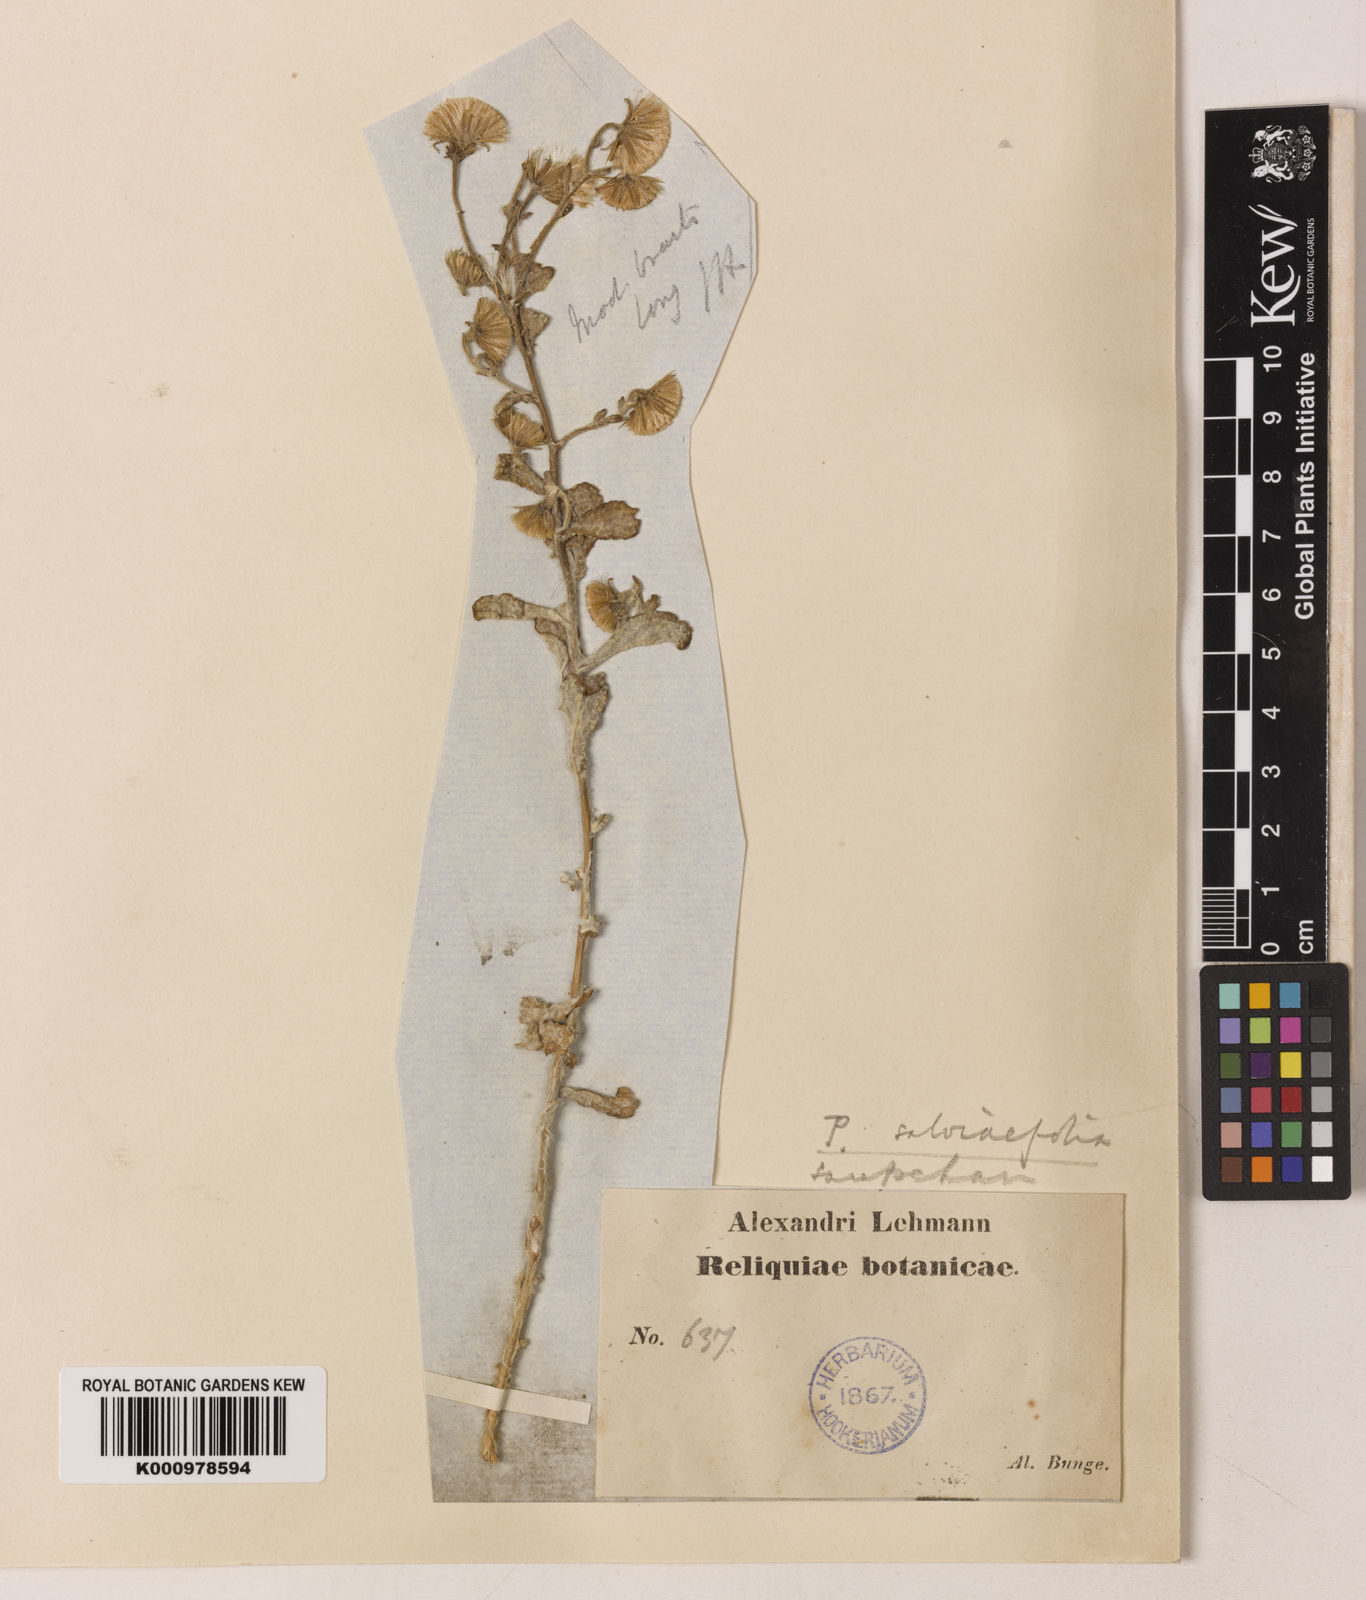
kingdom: Plantae
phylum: Tracheophyta
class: Magnoliopsida
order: Asterales
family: Asteraceae
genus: Pulicaria
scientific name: Pulicaria salviifolia
